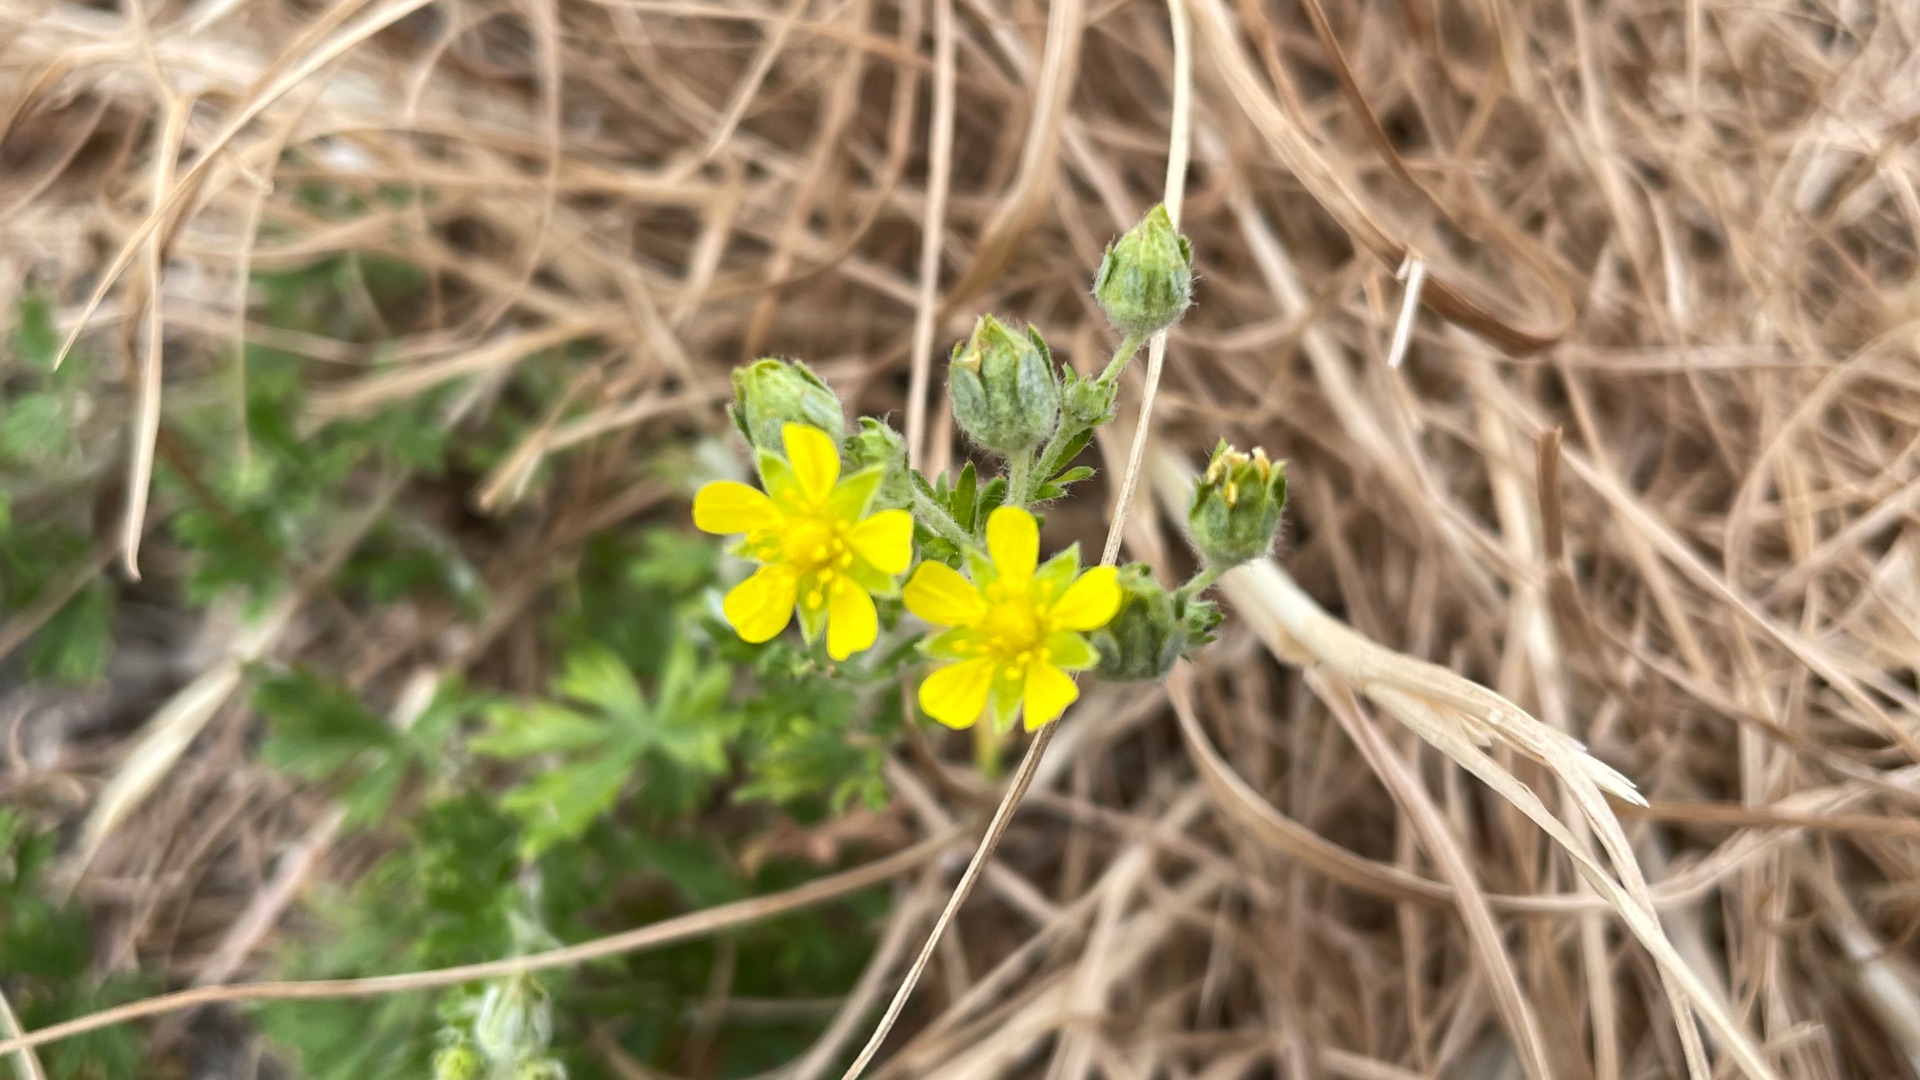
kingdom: Plantae
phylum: Tracheophyta
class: Magnoliopsida
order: Rosales
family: Rosaceae
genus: Potentilla
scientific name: Potentilla argentea
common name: Sølv-potentil
